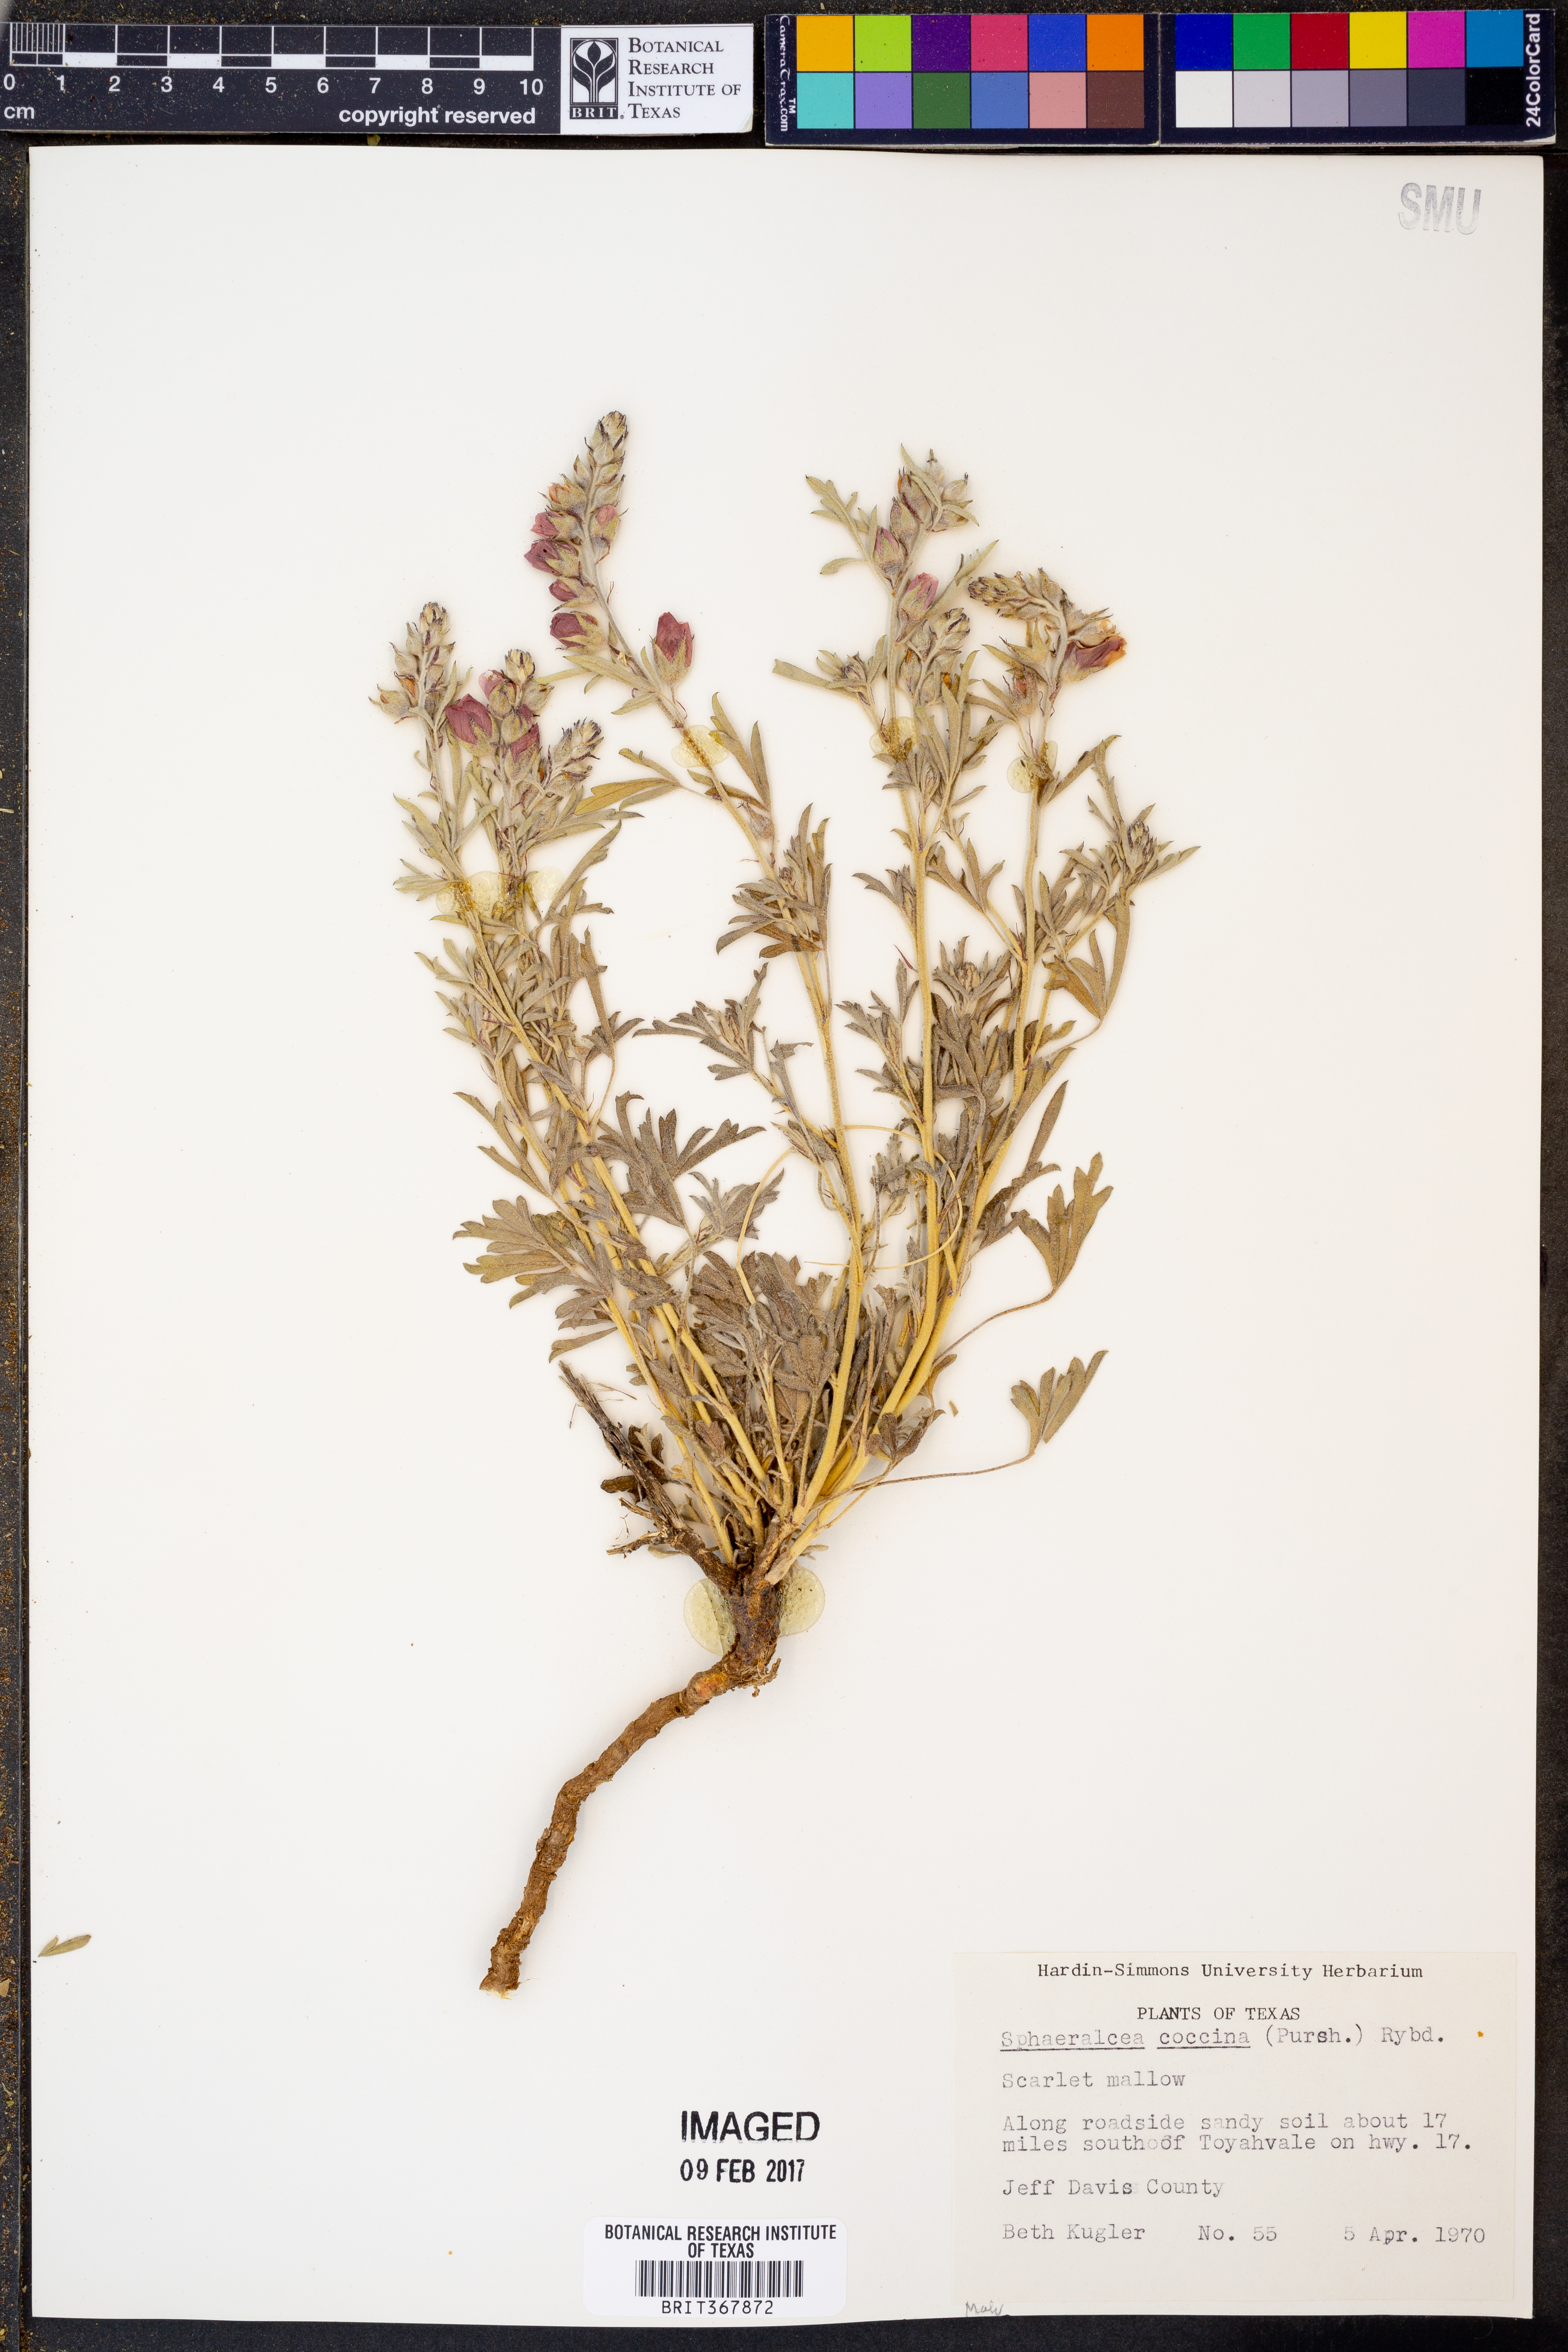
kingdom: Plantae
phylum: Tracheophyta
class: Magnoliopsida
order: Malvales
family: Malvaceae
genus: Sphaeralcea
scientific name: Sphaeralcea coccinea
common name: Moss-rose
